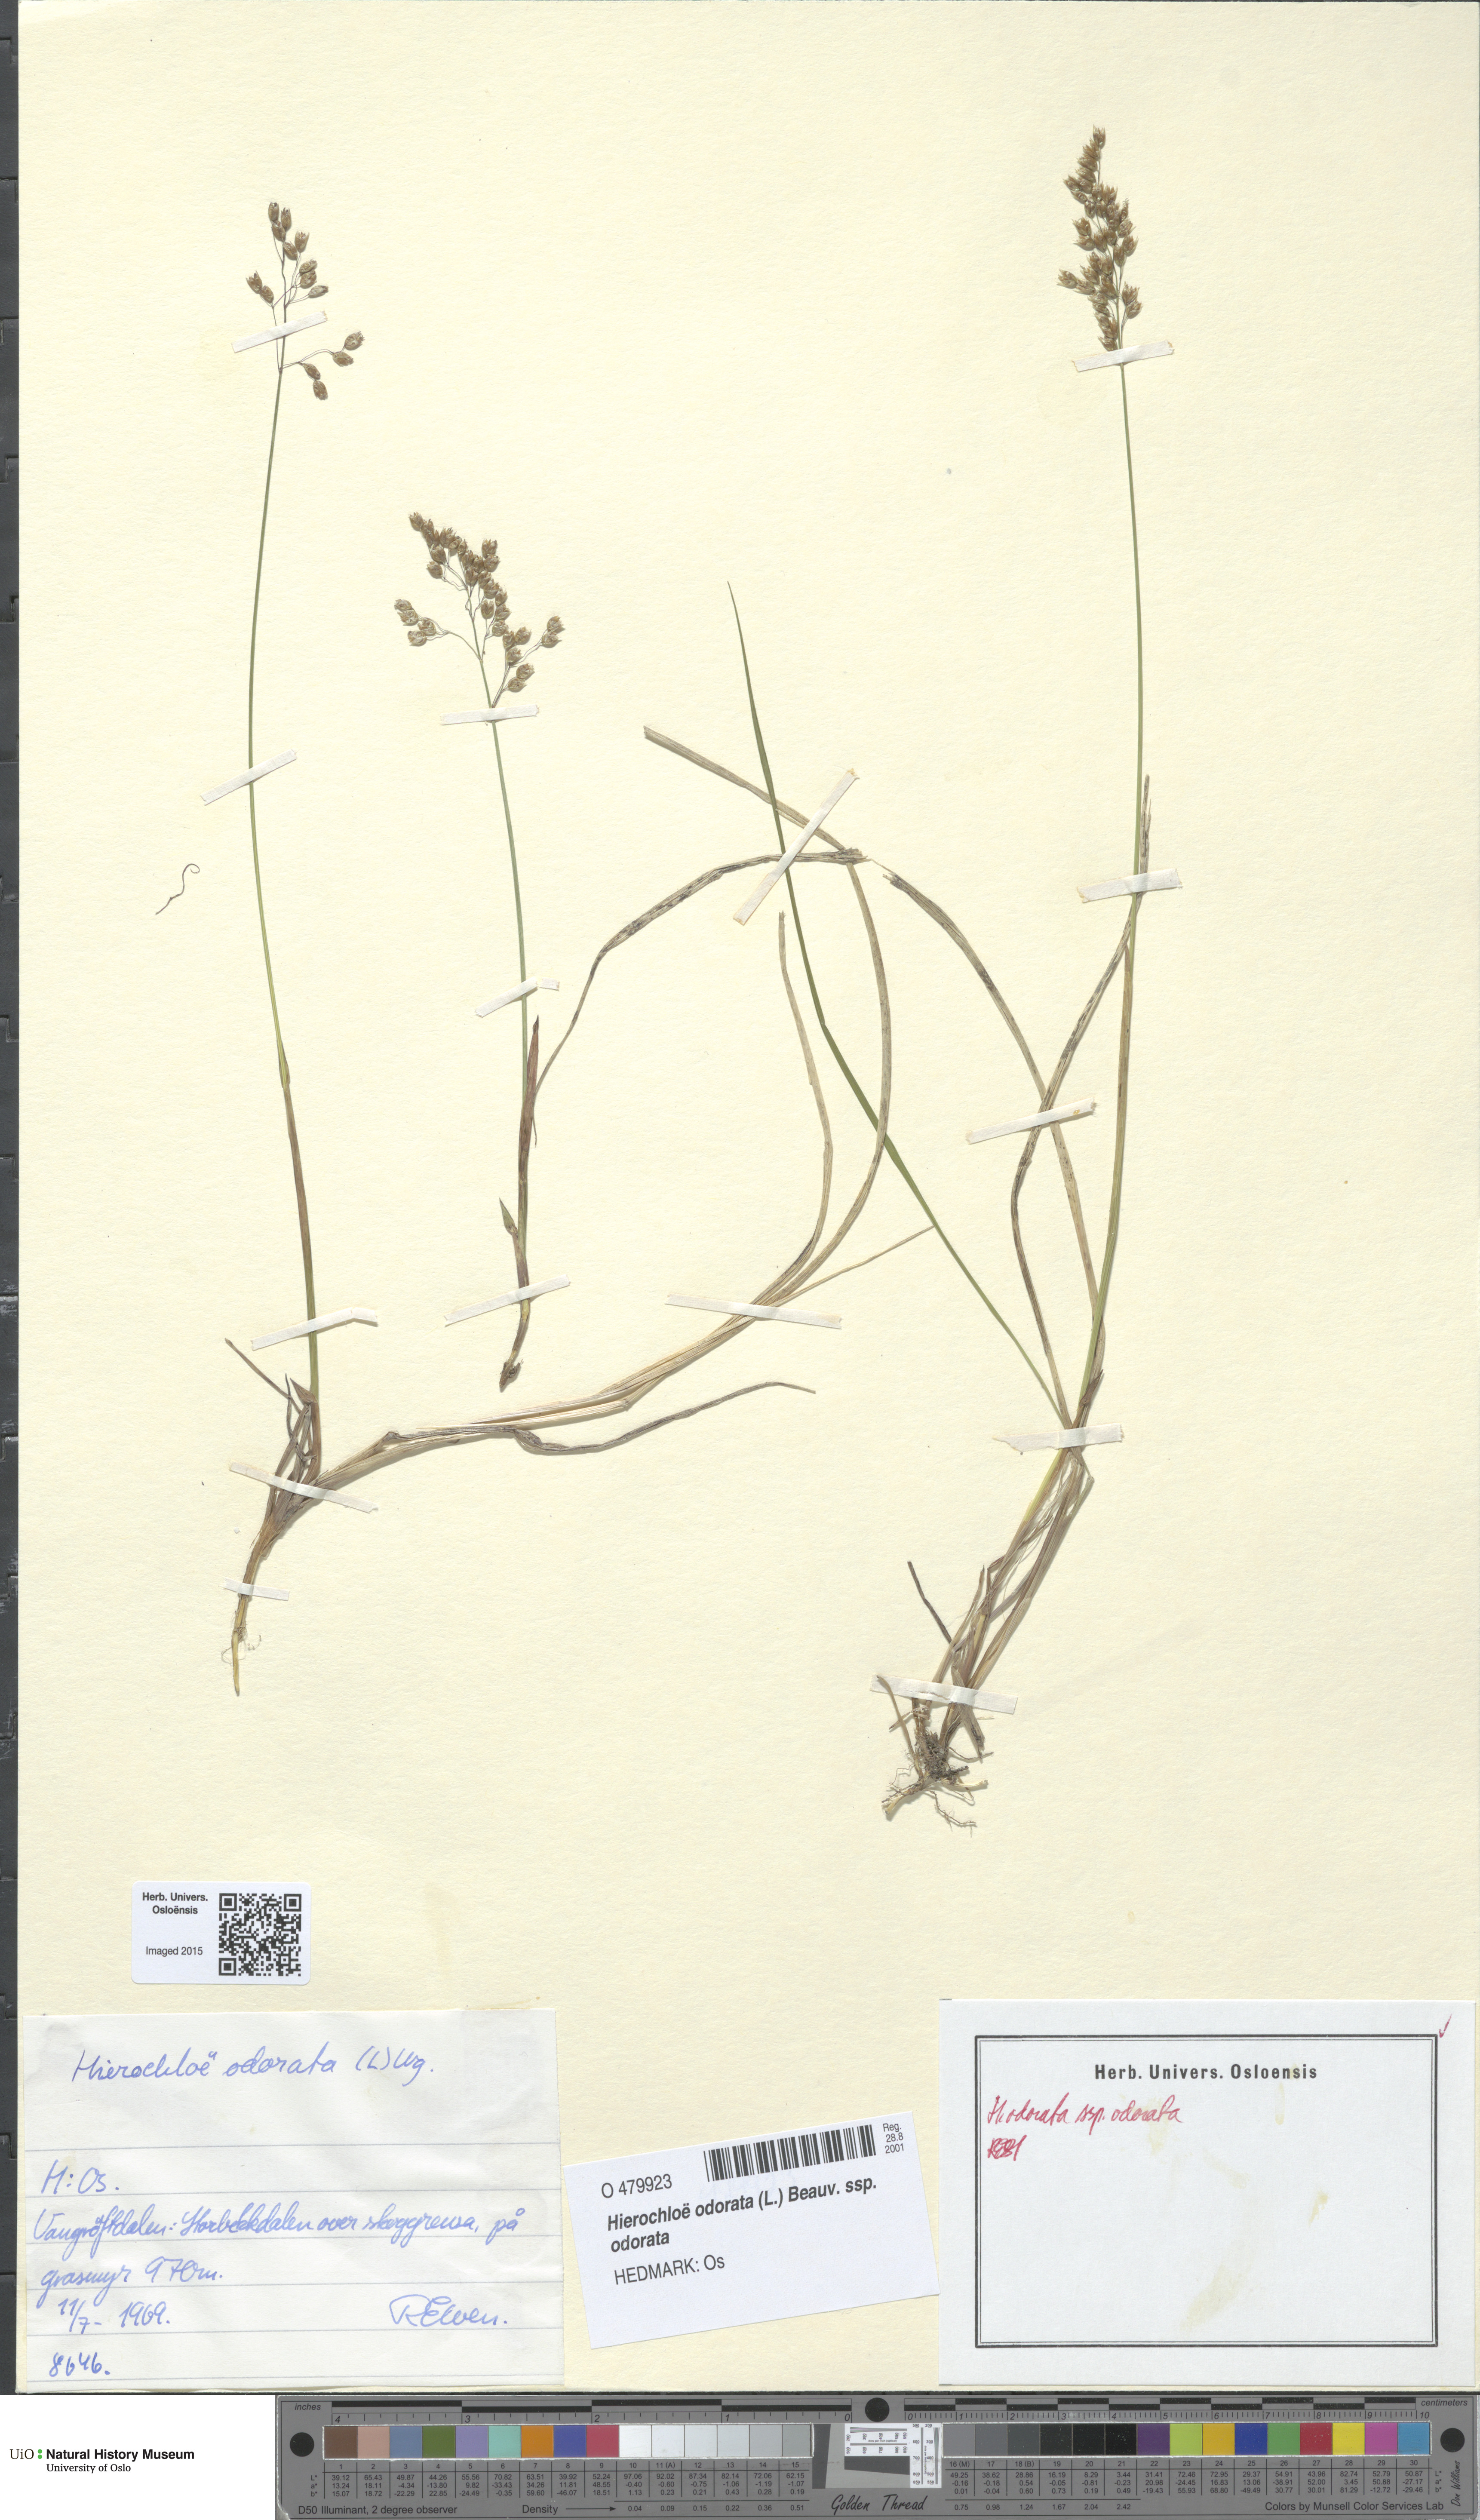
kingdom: Plantae
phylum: Tracheophyta
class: Liliopsida
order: Poales
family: Poaceae
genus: Anthoxanthum
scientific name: Anthoxanthum nitens
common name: Holy grass
